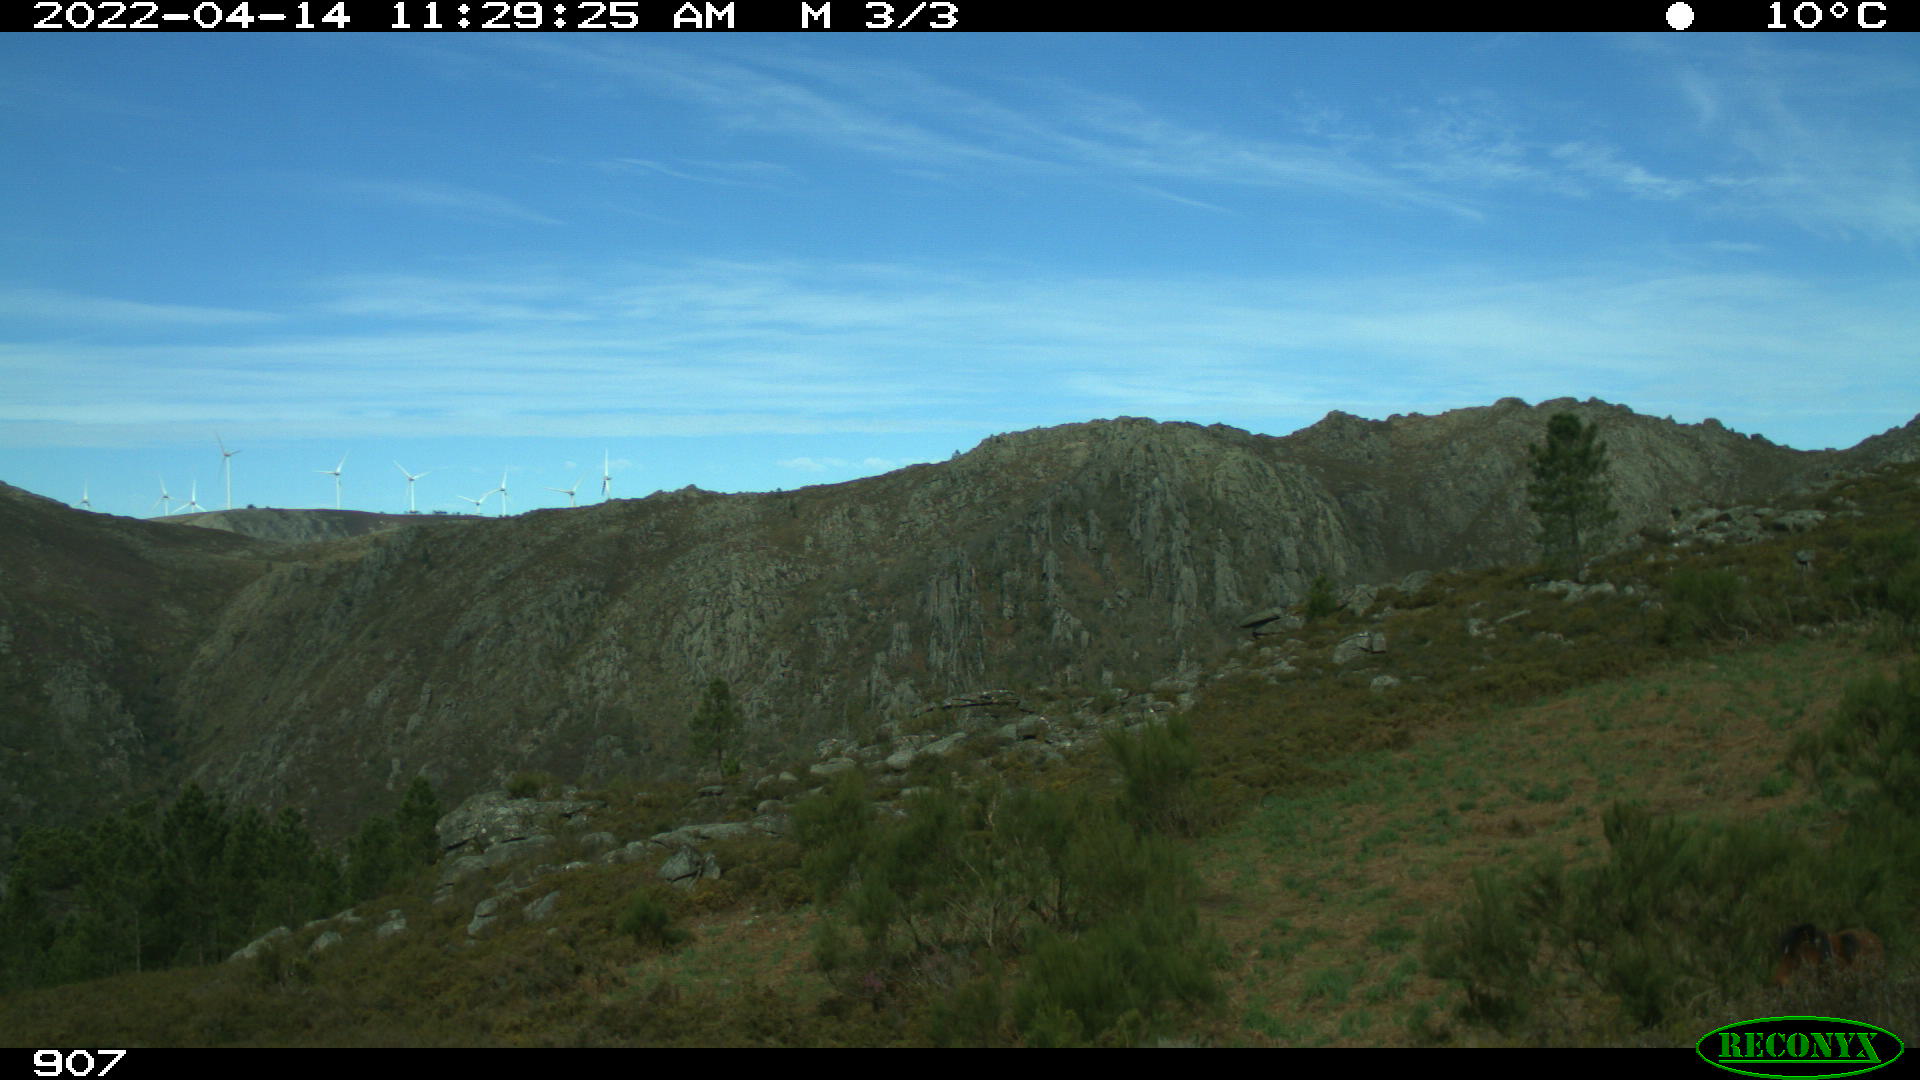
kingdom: Animalia
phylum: Chordata
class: Mammalia
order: Perissodactyla
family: Equidae
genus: Equus
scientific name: Equus caballus
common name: Horse
